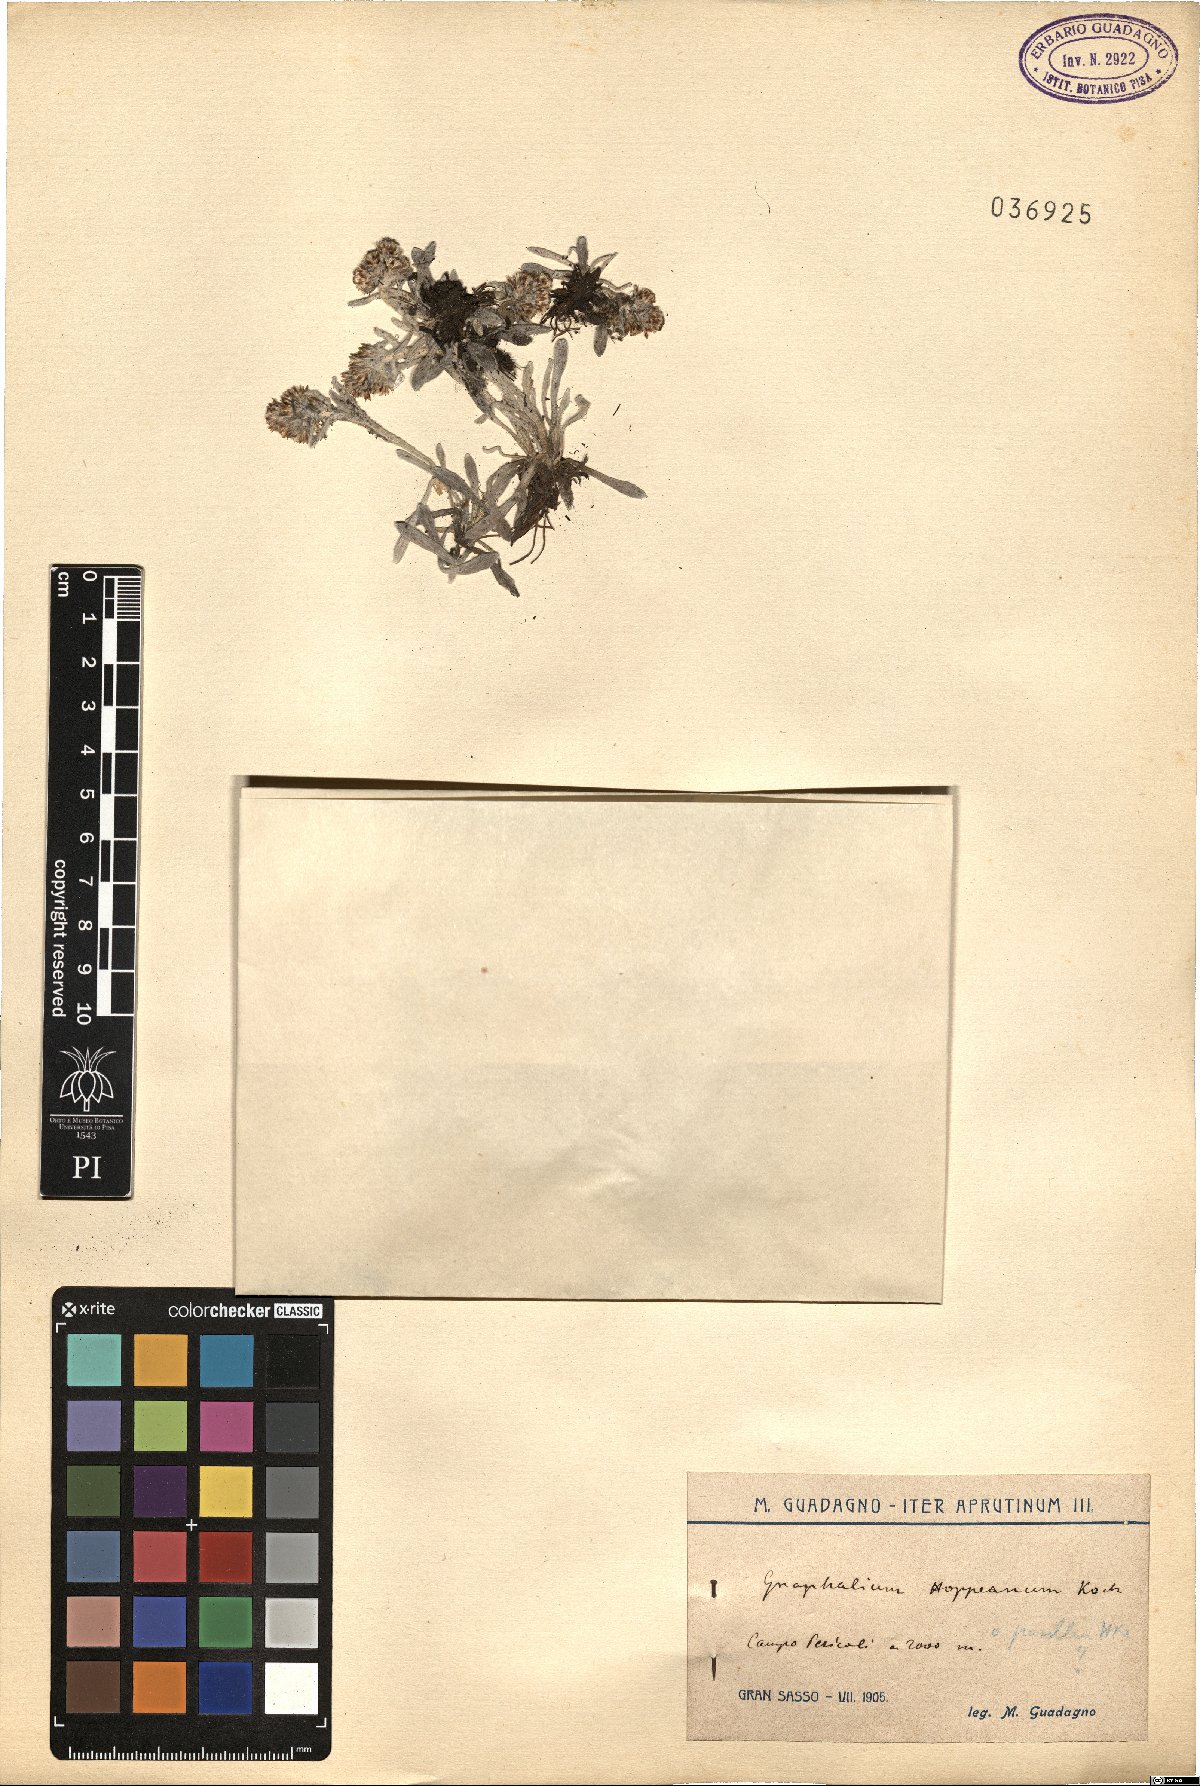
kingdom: Plantae
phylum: Tracheophyta
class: Magnoliopsida
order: Asterales
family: Asteraceae
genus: Omalotheca
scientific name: Omalotheca diminuta
